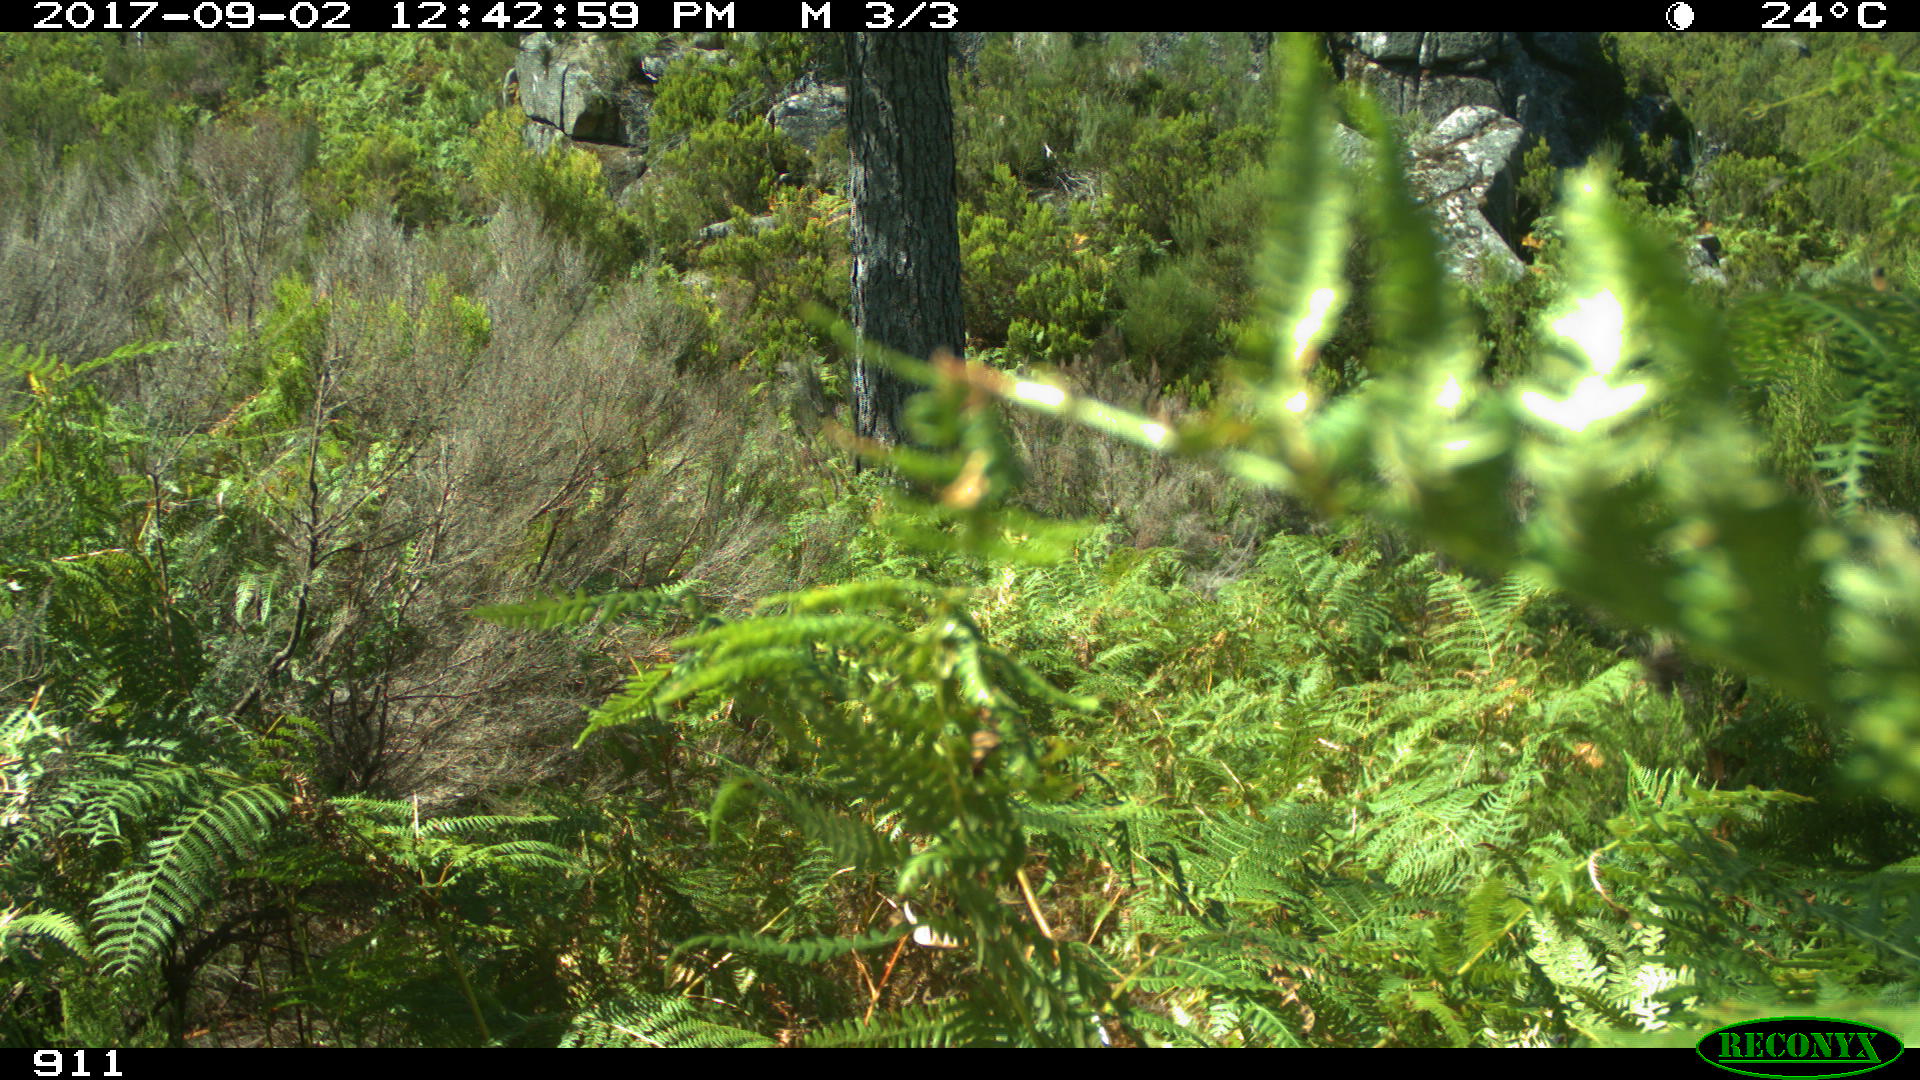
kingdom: Animalia
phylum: Chordata
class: Mammalia
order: Perissodactyla
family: Equidae
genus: Equus
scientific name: Equus caballus
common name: Horse
